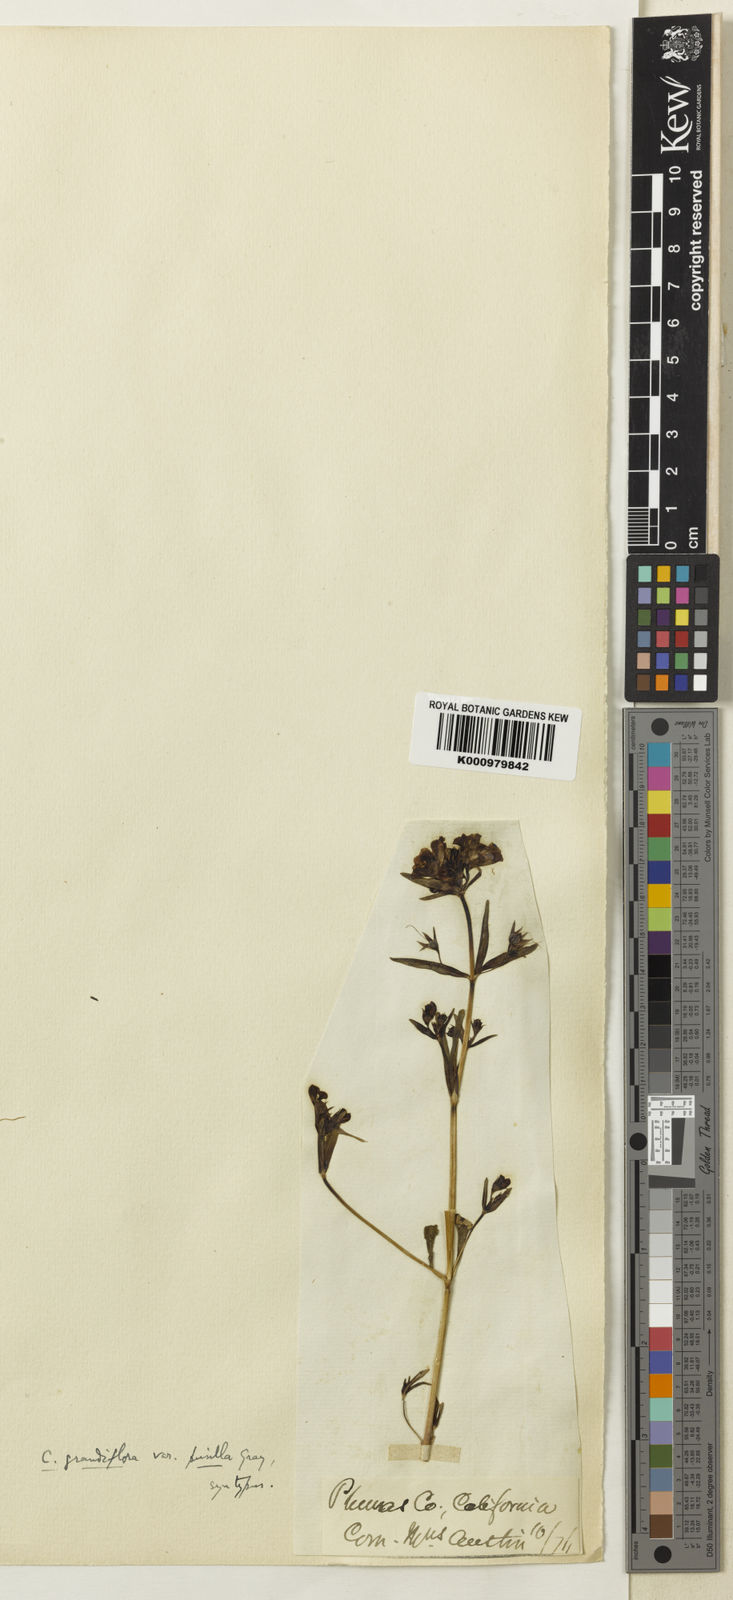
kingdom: Plantae
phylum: Tracheophyta
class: Magnoliopsida
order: Lamiales
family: Plantaginaceae
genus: Collinsia
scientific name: Collinsia grandiflora
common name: Large-flower blue-eyed-mary
